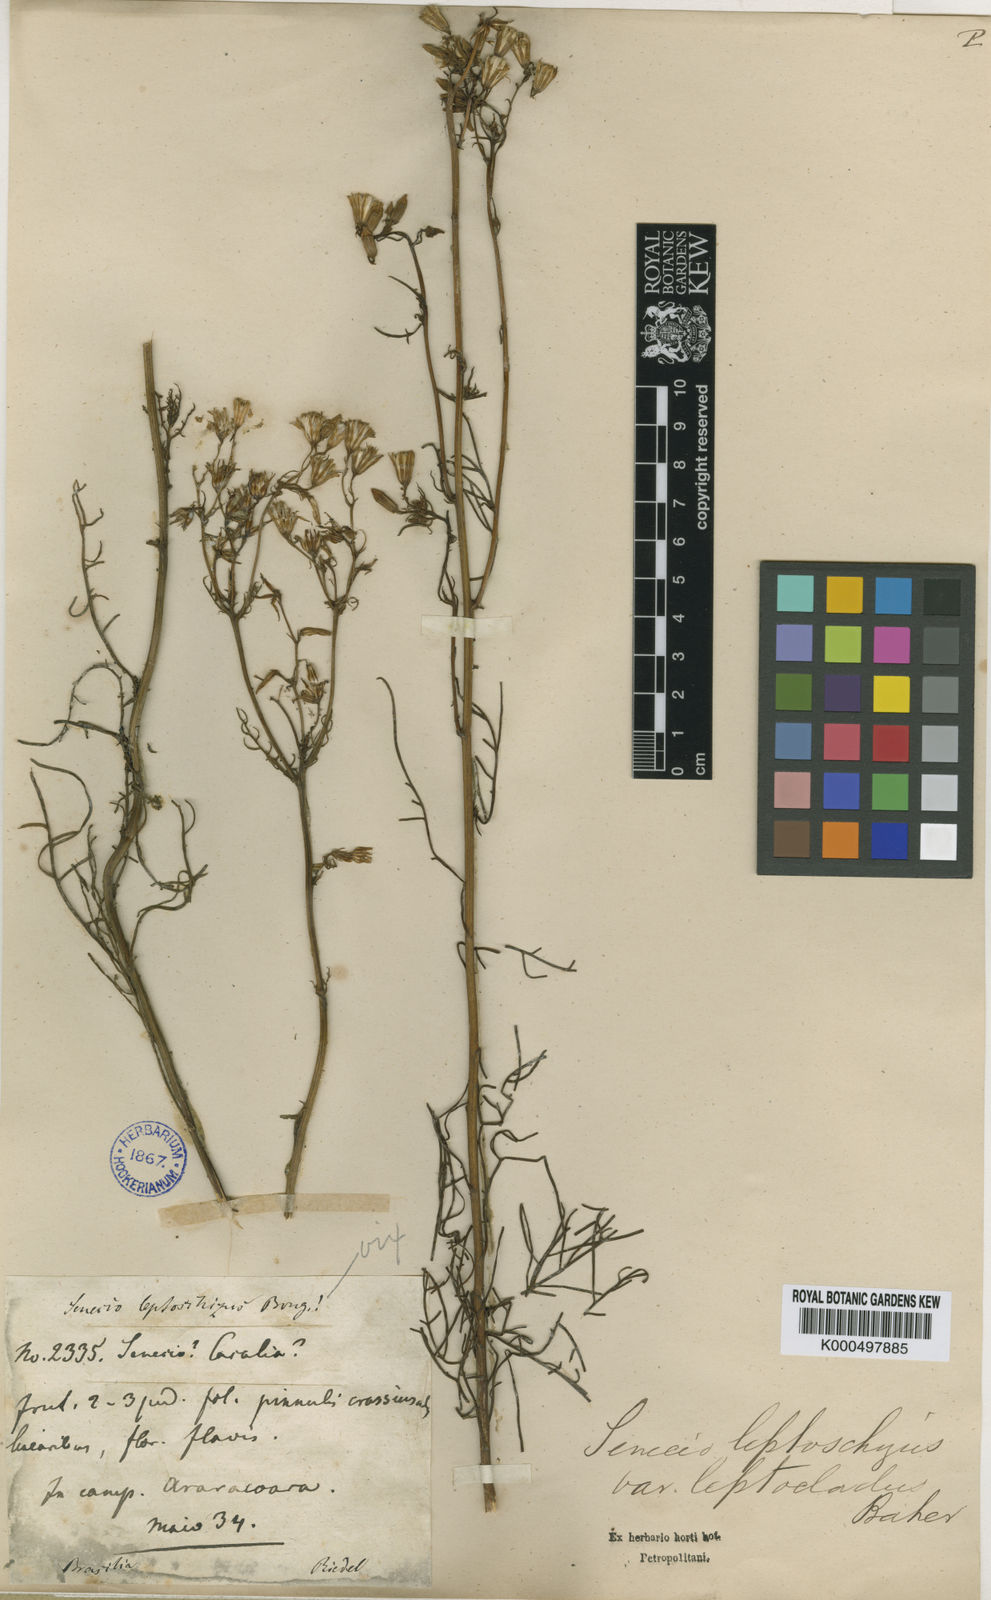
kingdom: Plantae
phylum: Tracheophyta
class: Magnoliopsida
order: Asterales
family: Asteraceae
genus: Senecio
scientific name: Senecio leptoschizus
